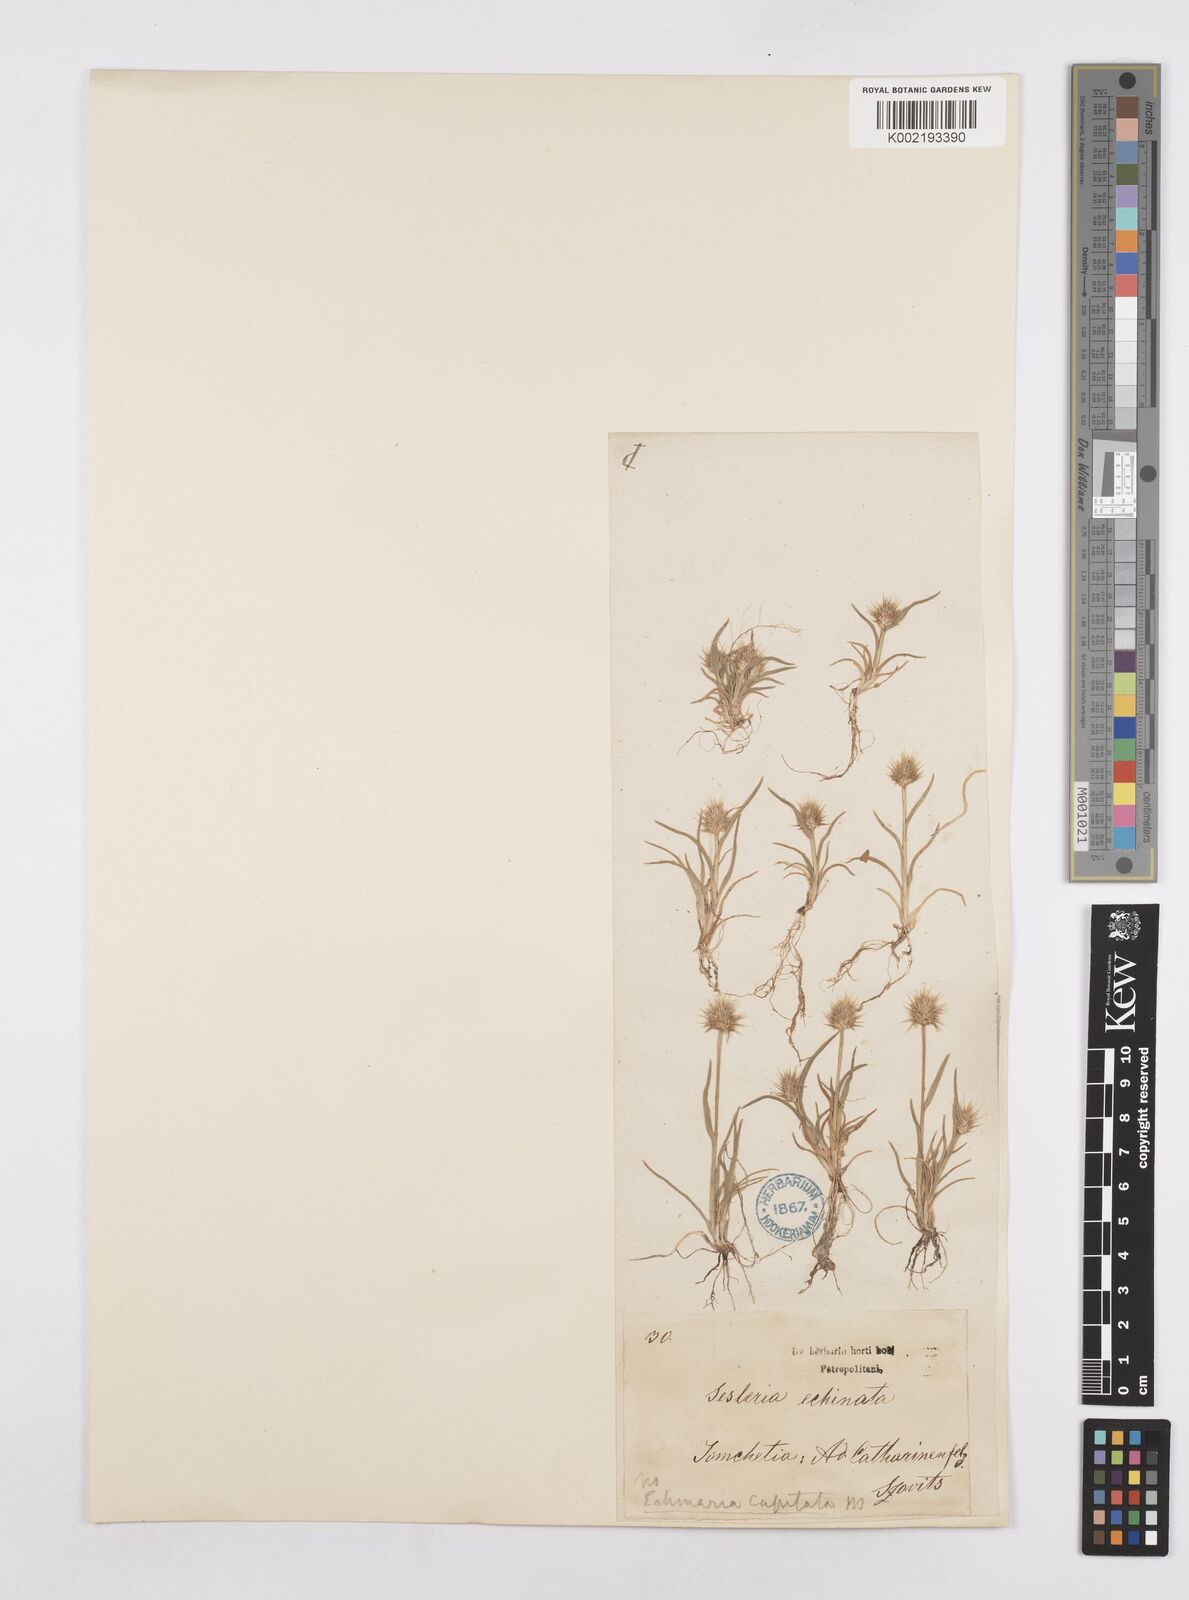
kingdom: Plantae
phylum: Tracheophyta
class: Liliopsida
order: Poales
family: Poaceae
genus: Echinaria
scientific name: Echinaria capitata
